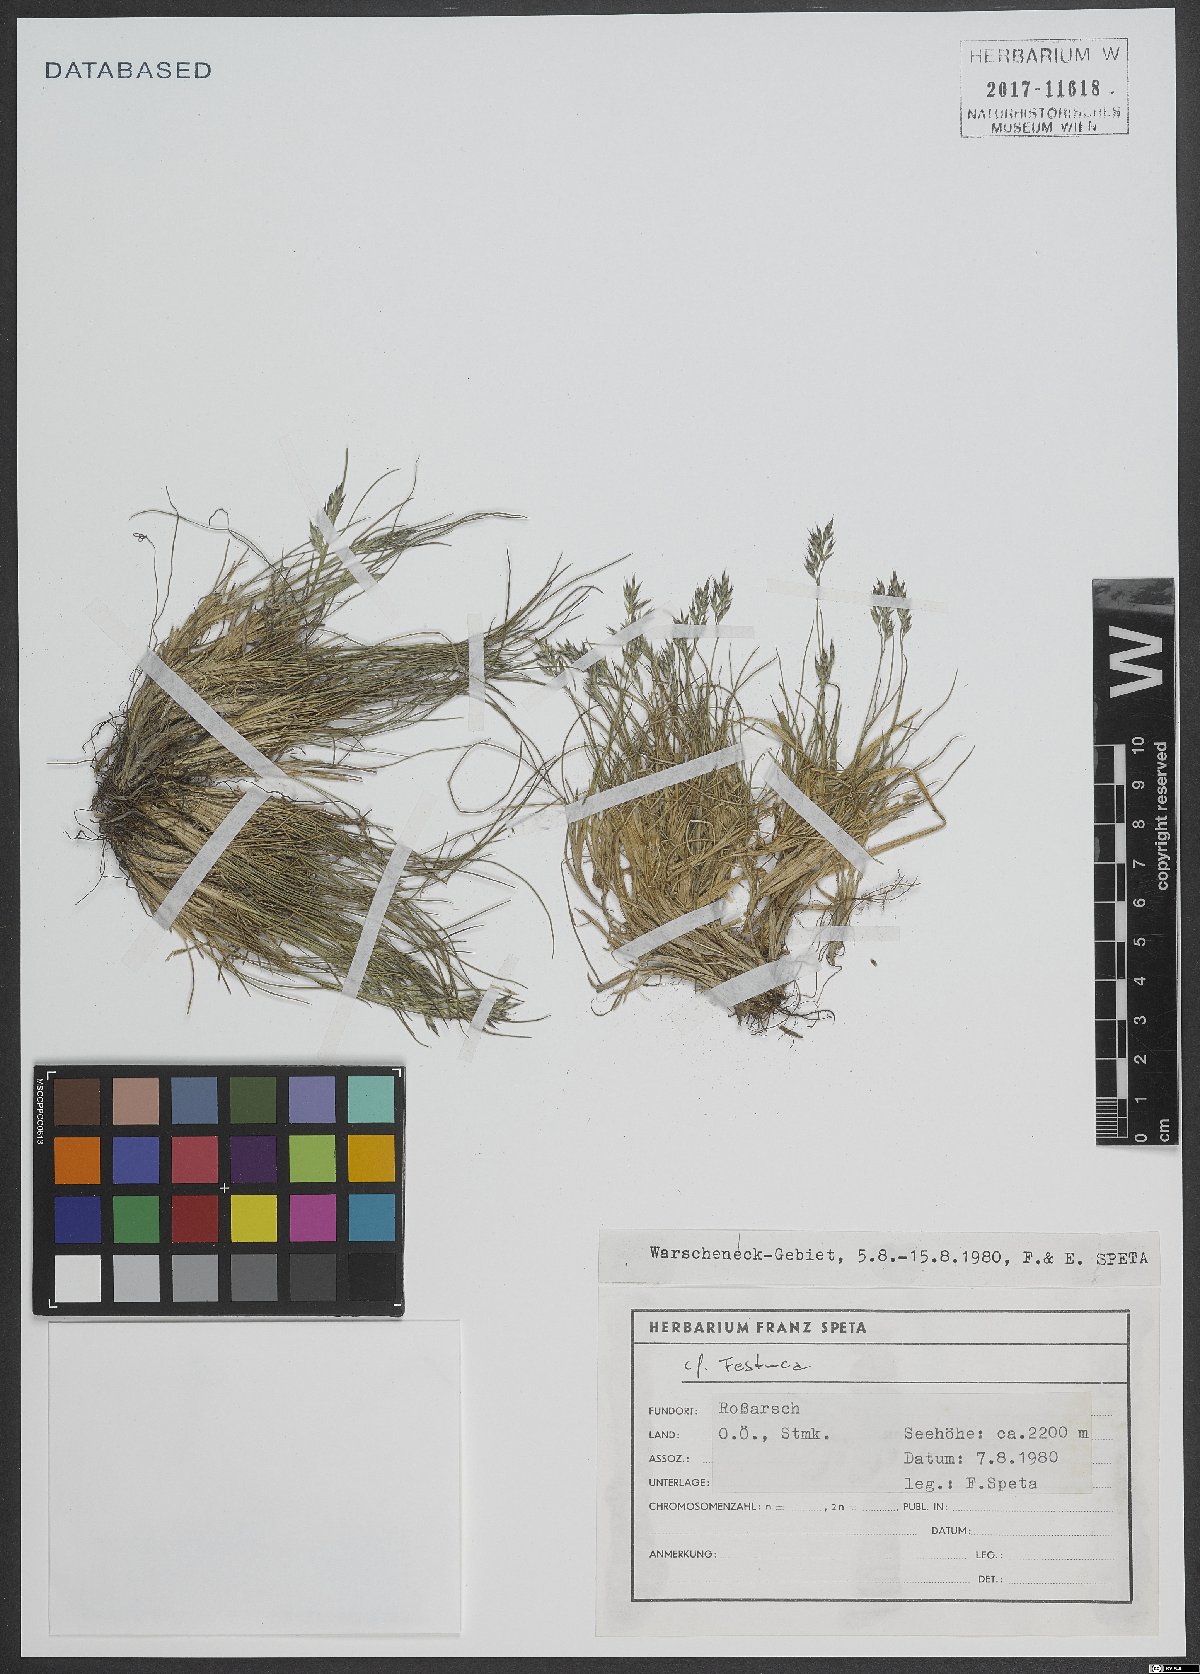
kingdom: Plantae
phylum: Tracheophyta
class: Liliopsida
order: Poales
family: Poaceae
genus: Festuca
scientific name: Festuca
